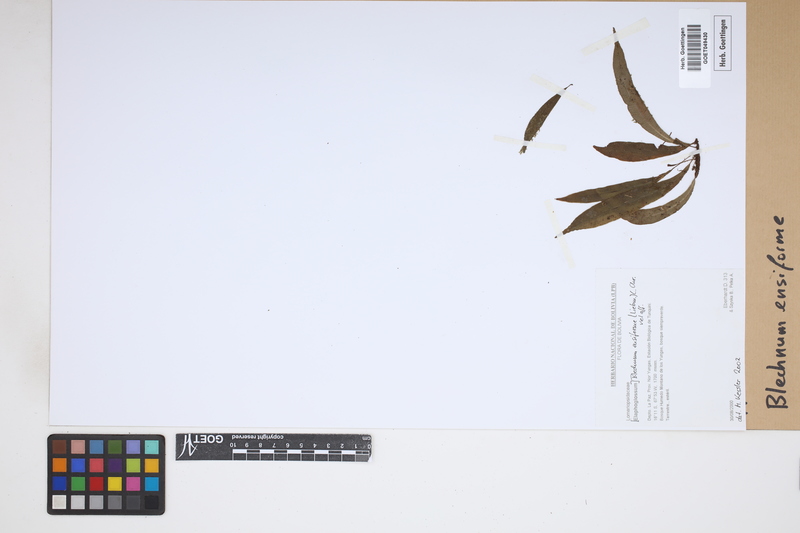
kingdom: Plantae
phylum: Tracheophyta
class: Polypodiopsida
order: Polypodiales
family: Blechnaceae
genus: Lomaridium
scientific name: Lomaridium ensiforme
